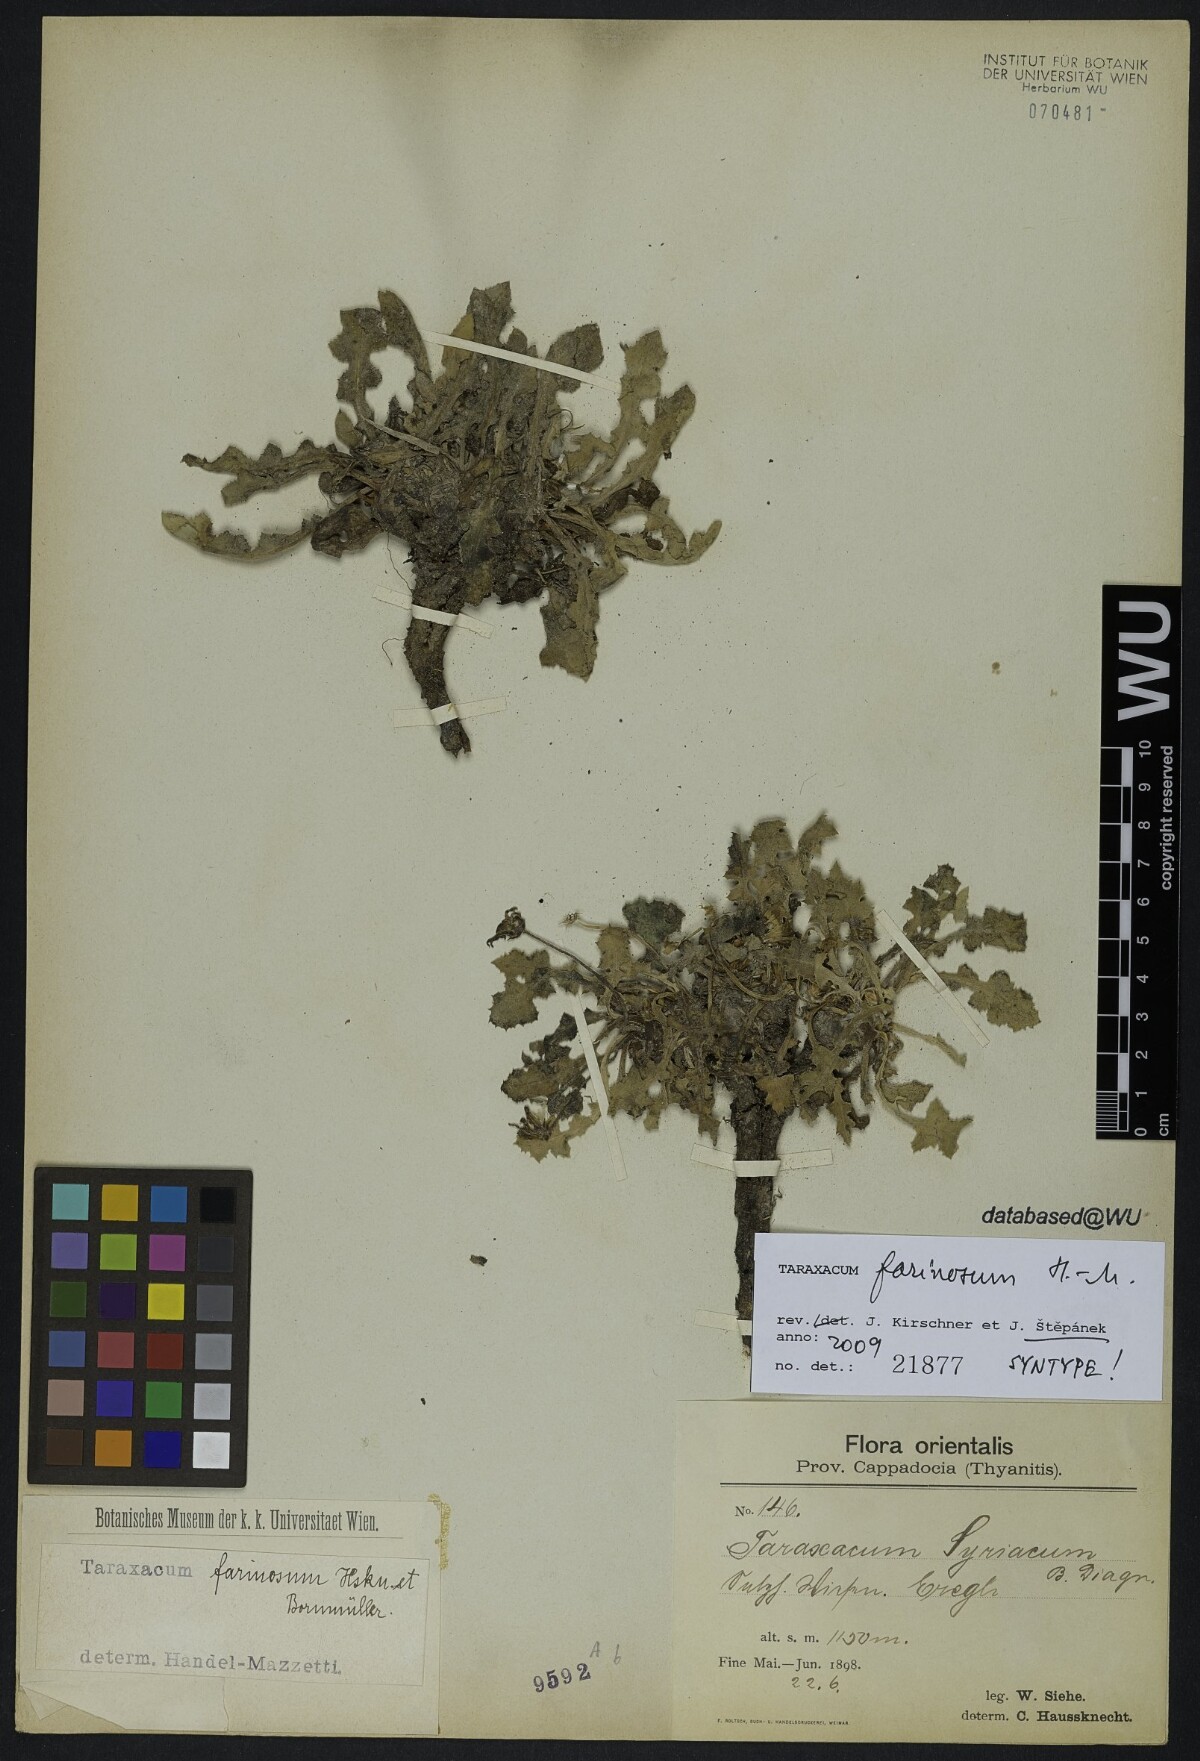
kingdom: Plantae
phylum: Tracheophyta
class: Magnoliopsida
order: Asterales
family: Asteraceae
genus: Taraxacum
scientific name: Taraxacum farinosum
